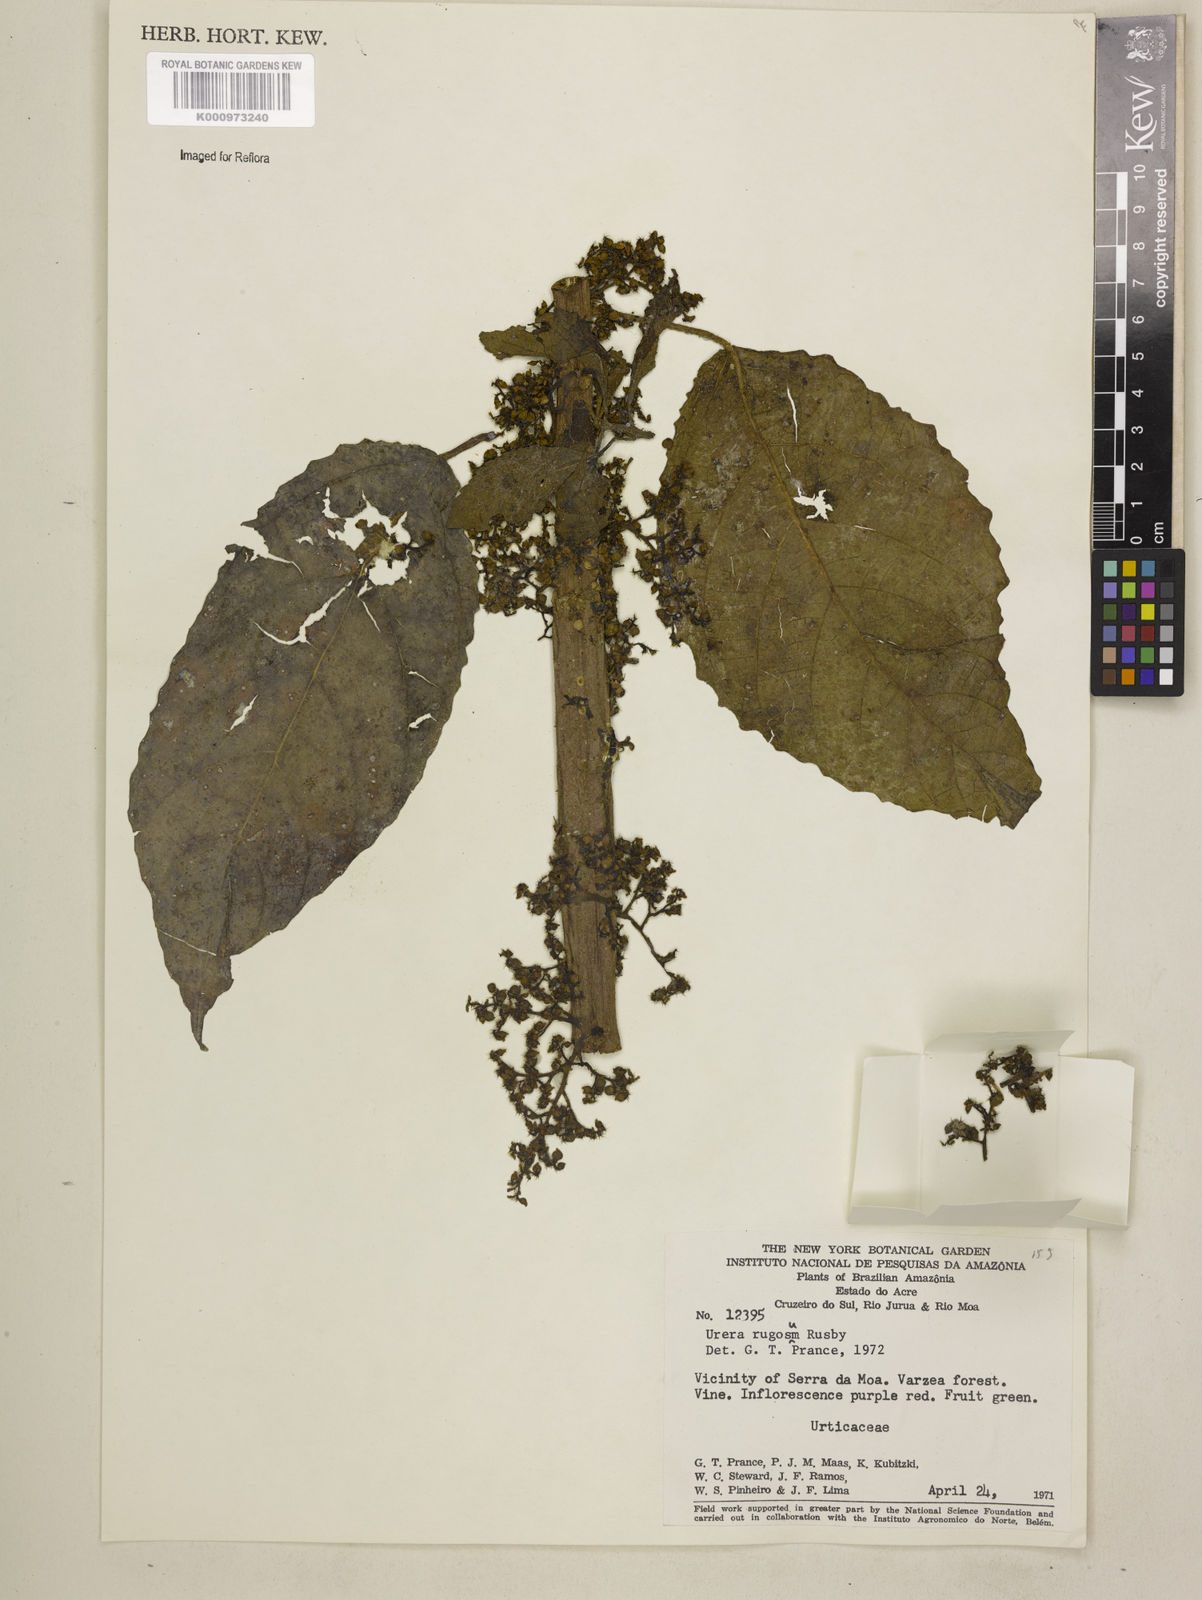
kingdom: Plantae
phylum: Tracheophyta
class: Magnoliopsida
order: Rosales
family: Urticaceae
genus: Urera
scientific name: Urera baccifera
